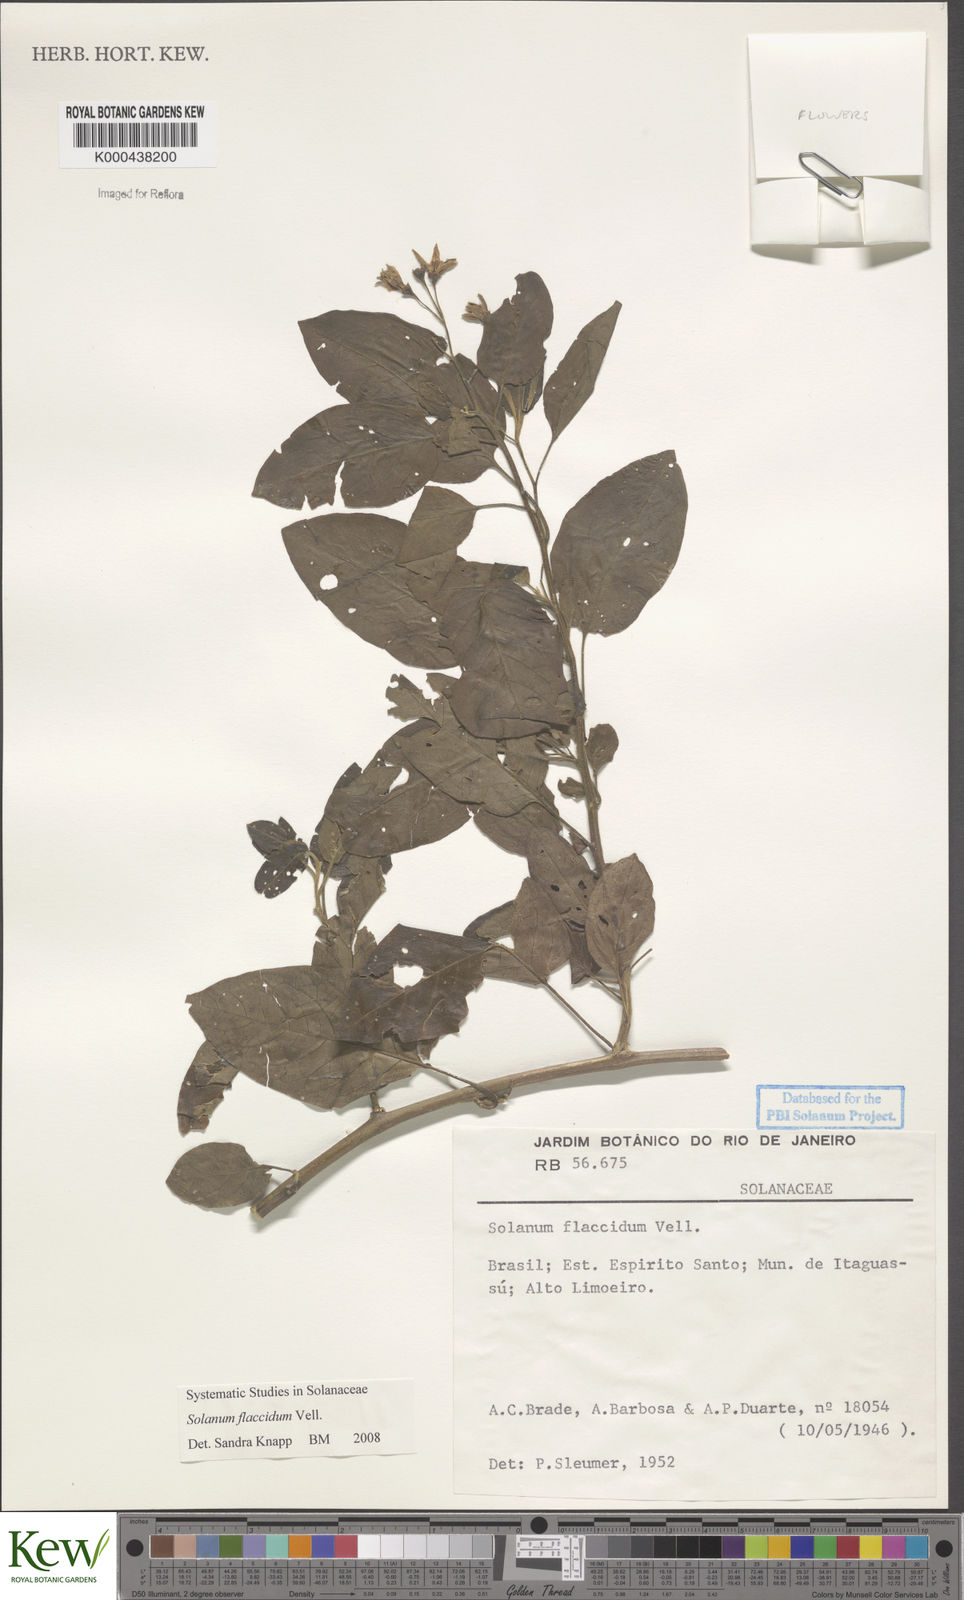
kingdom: Plantae
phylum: Tracheophyta
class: Magnoliopsida
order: Solanales
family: Solanaceae
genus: Solanum
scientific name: Solanum flaccidum
